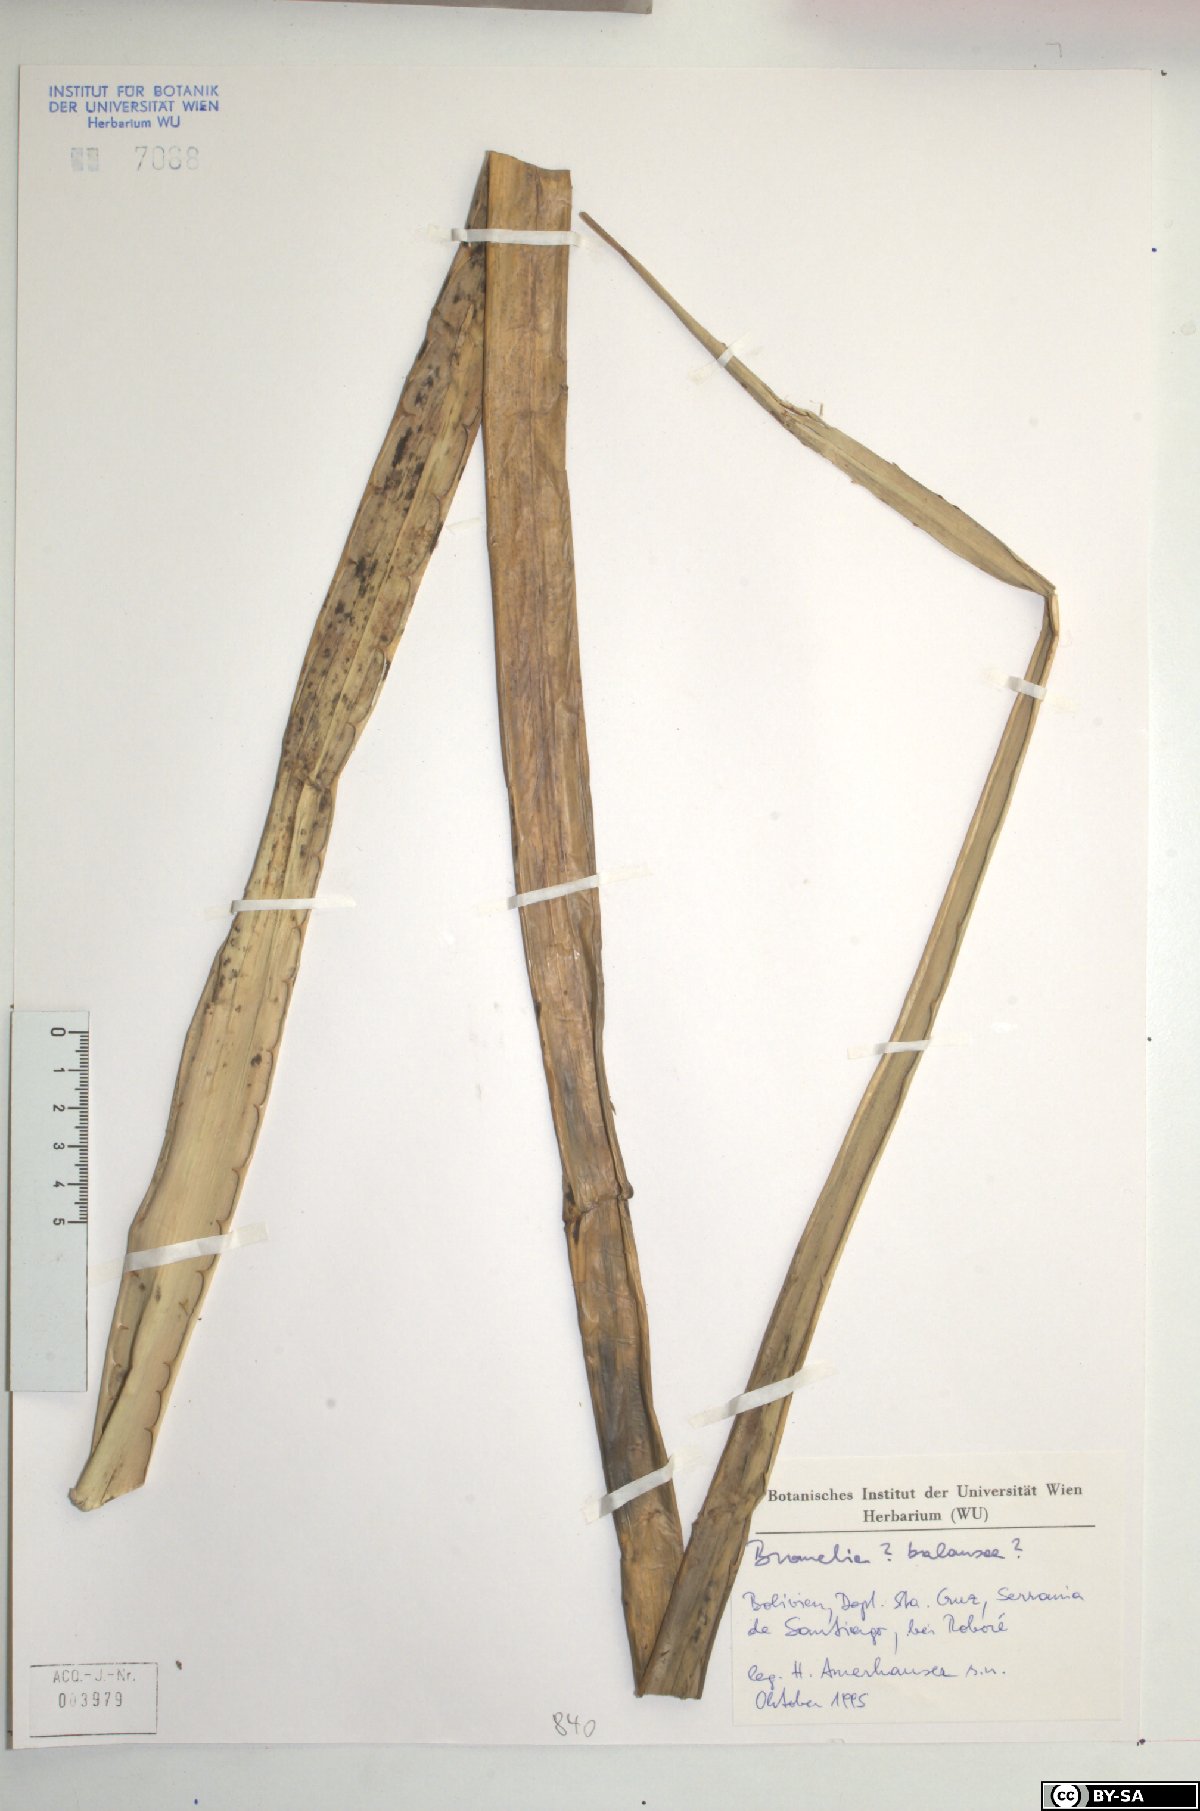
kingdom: Plantae
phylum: Tracheophyta
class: Liliopsida
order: Poales
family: Bromeliaceae
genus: Bromelia
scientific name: Bromelia balansae
